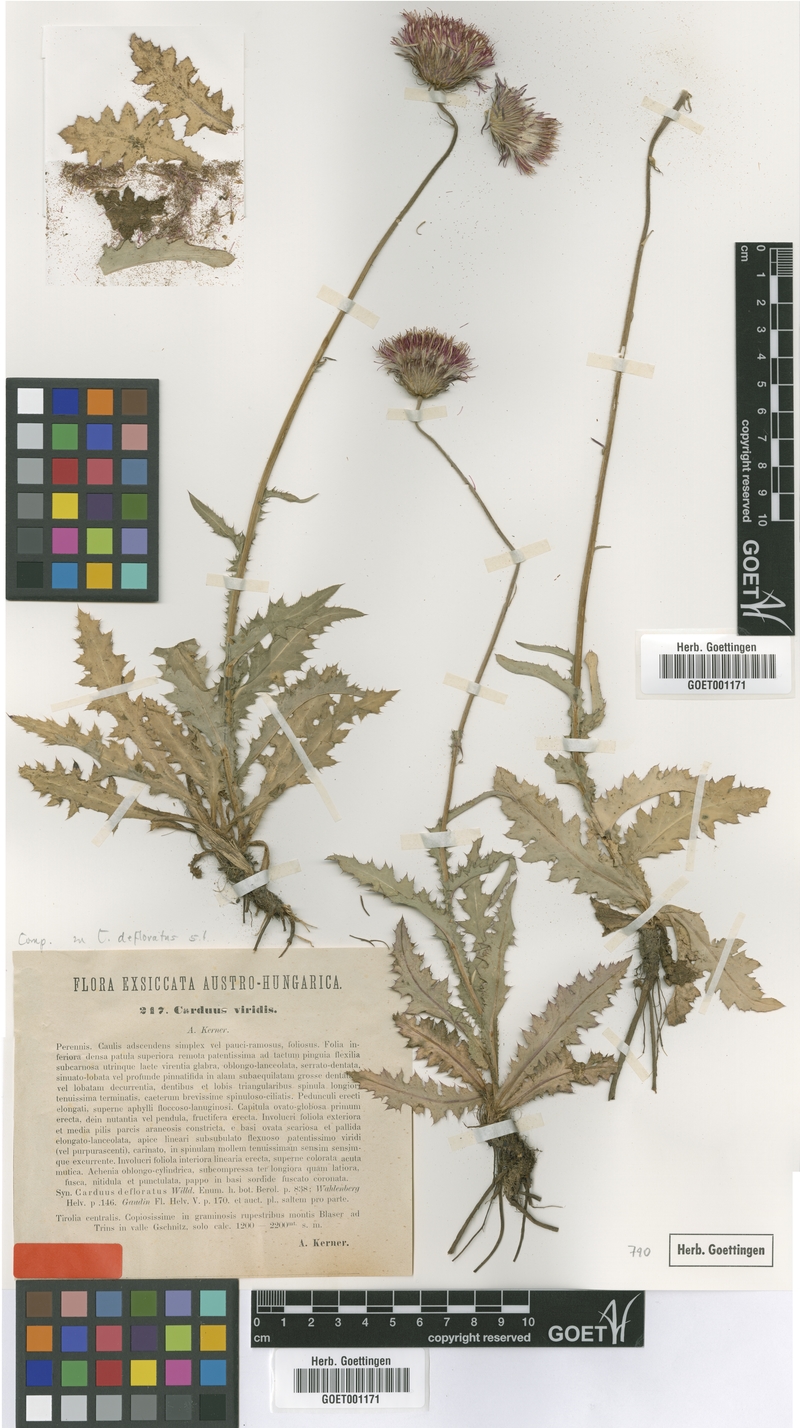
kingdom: Plantae
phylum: Tracheophyta
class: Magnoliopsida
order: Asterales
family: Asteraceae
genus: Carduus
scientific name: Carduus defloratus
